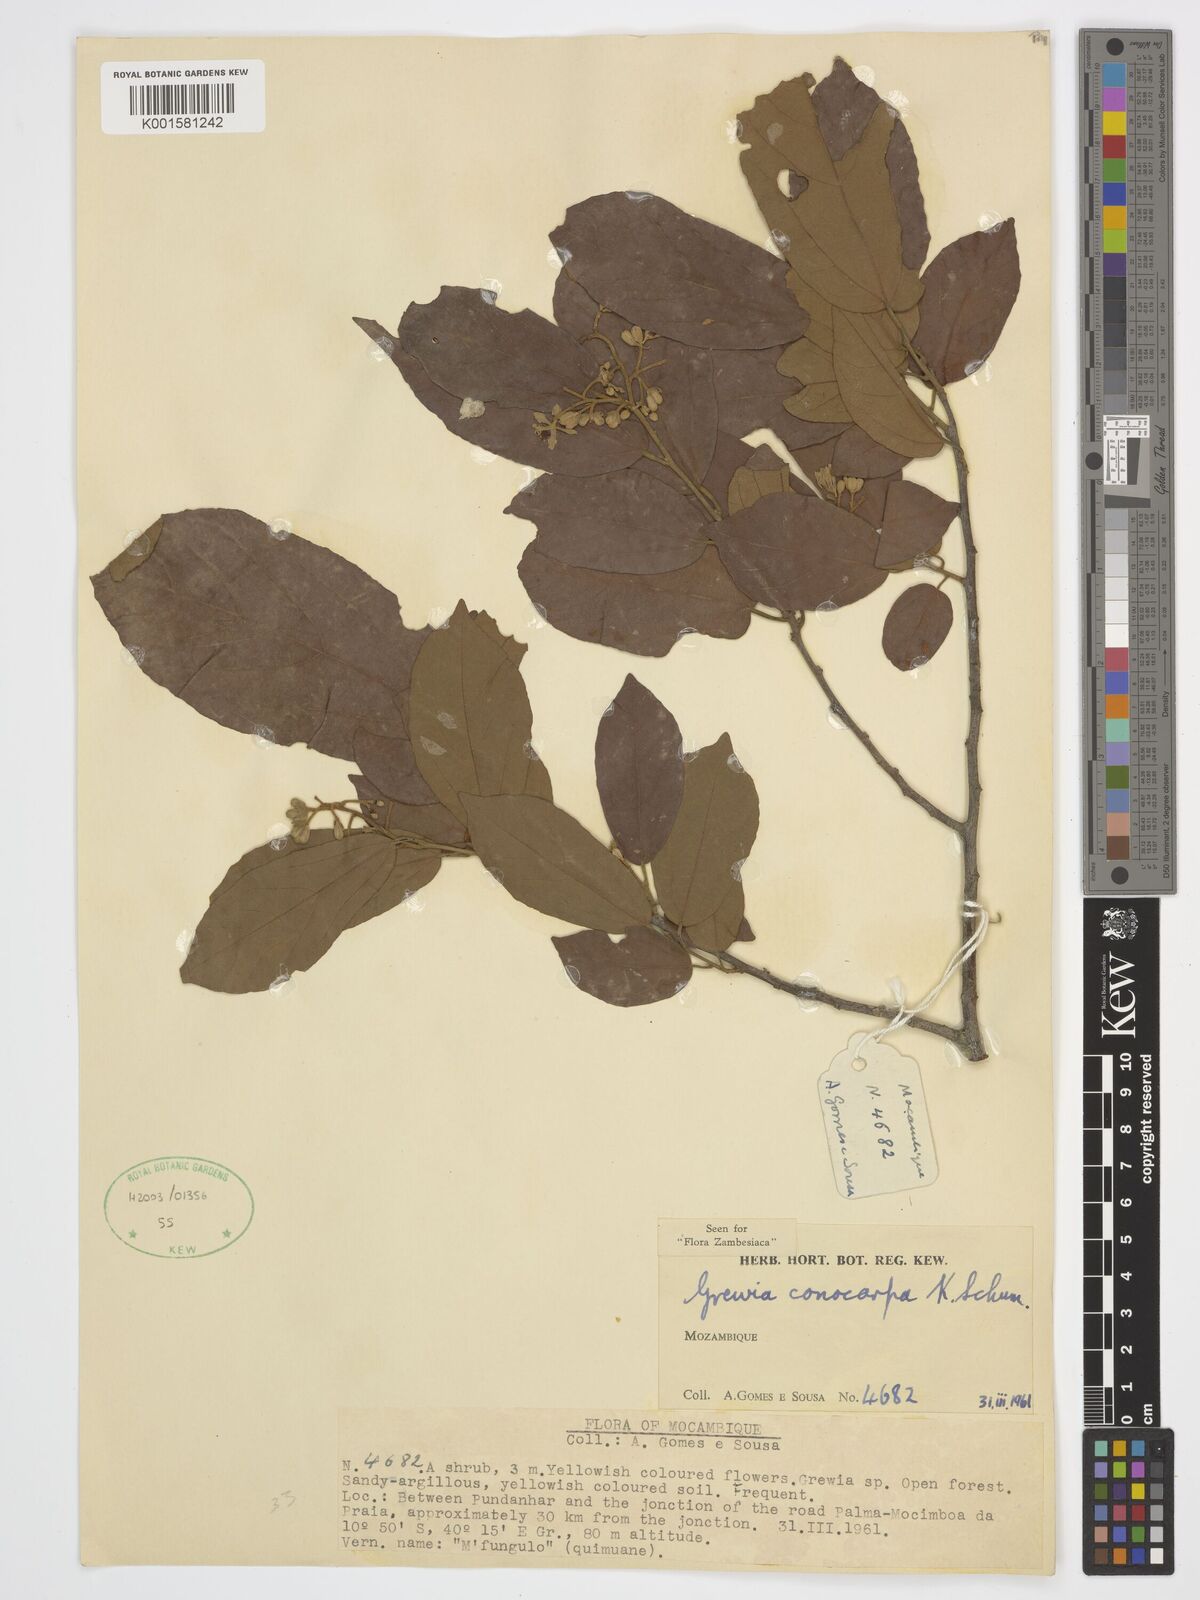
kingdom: Plantae
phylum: Tracheophyta
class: Magnoliopsida
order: Malvales
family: Malvaceae
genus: Microcos
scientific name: Microcos conocarpa
